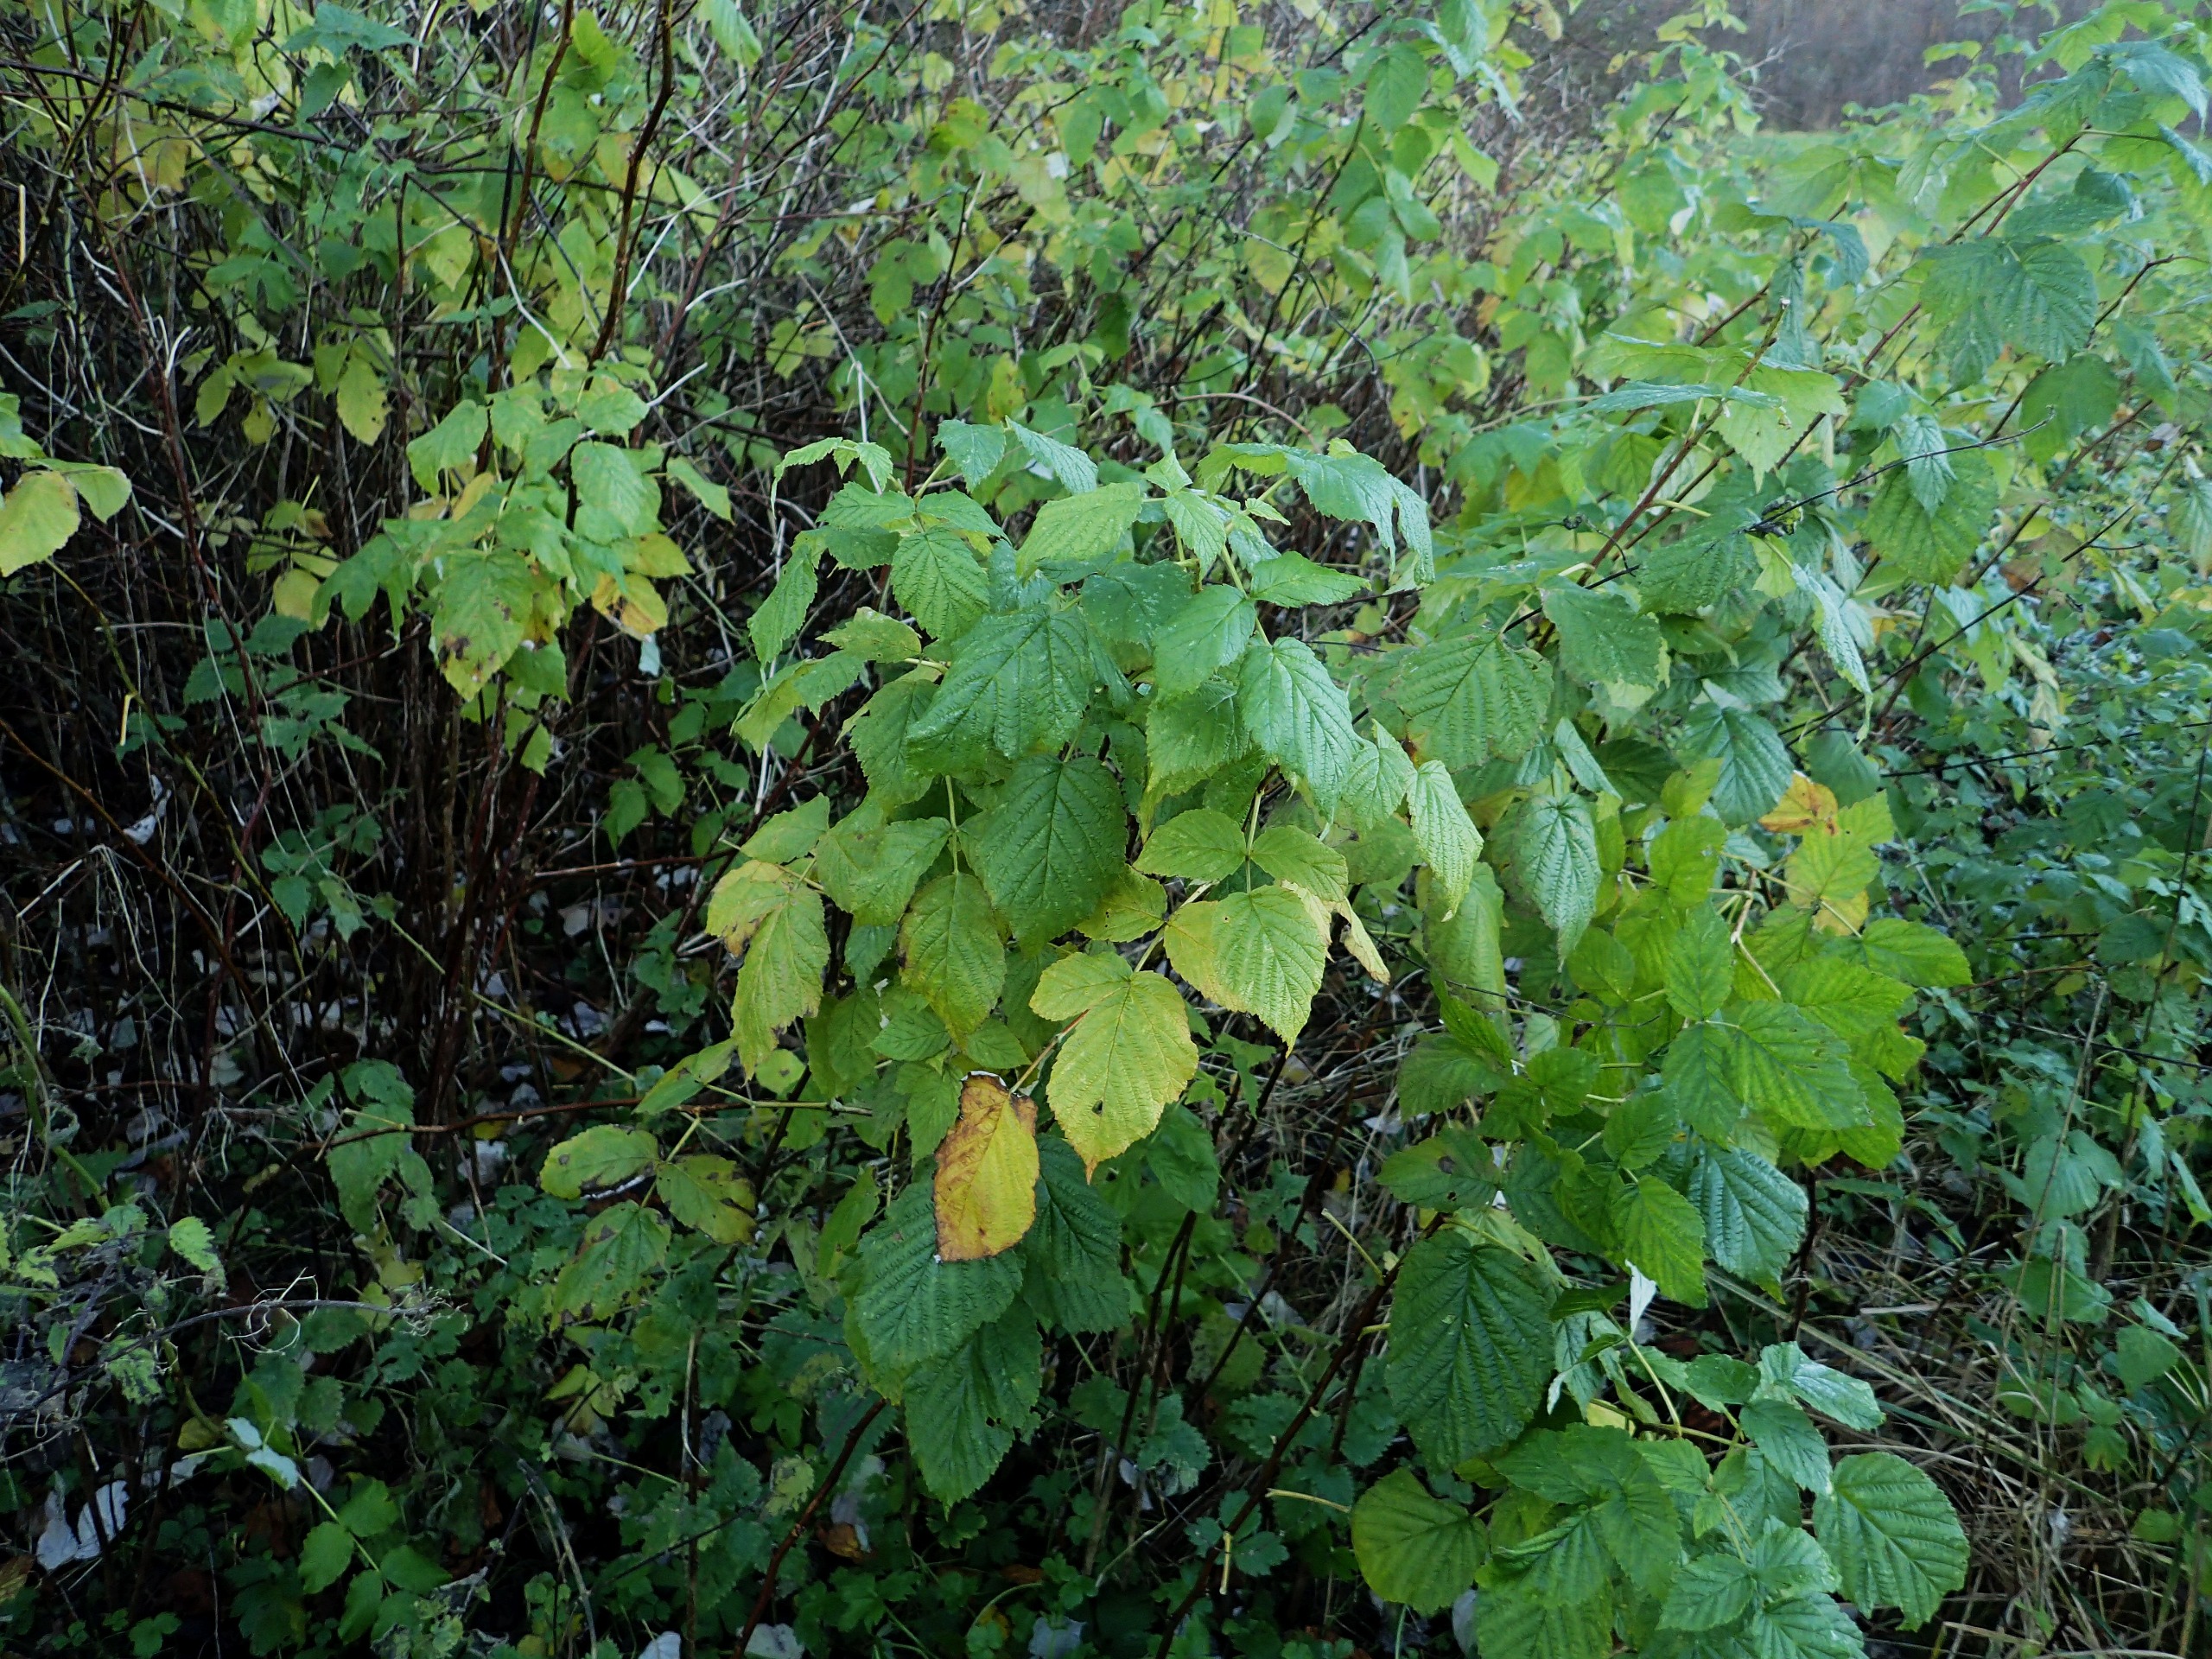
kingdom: Plantae
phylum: Tracheophyta
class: Magnoliopsida
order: Rosales
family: Rosaceae
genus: Rubus
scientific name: Rubus idaeus
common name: Hindbær
